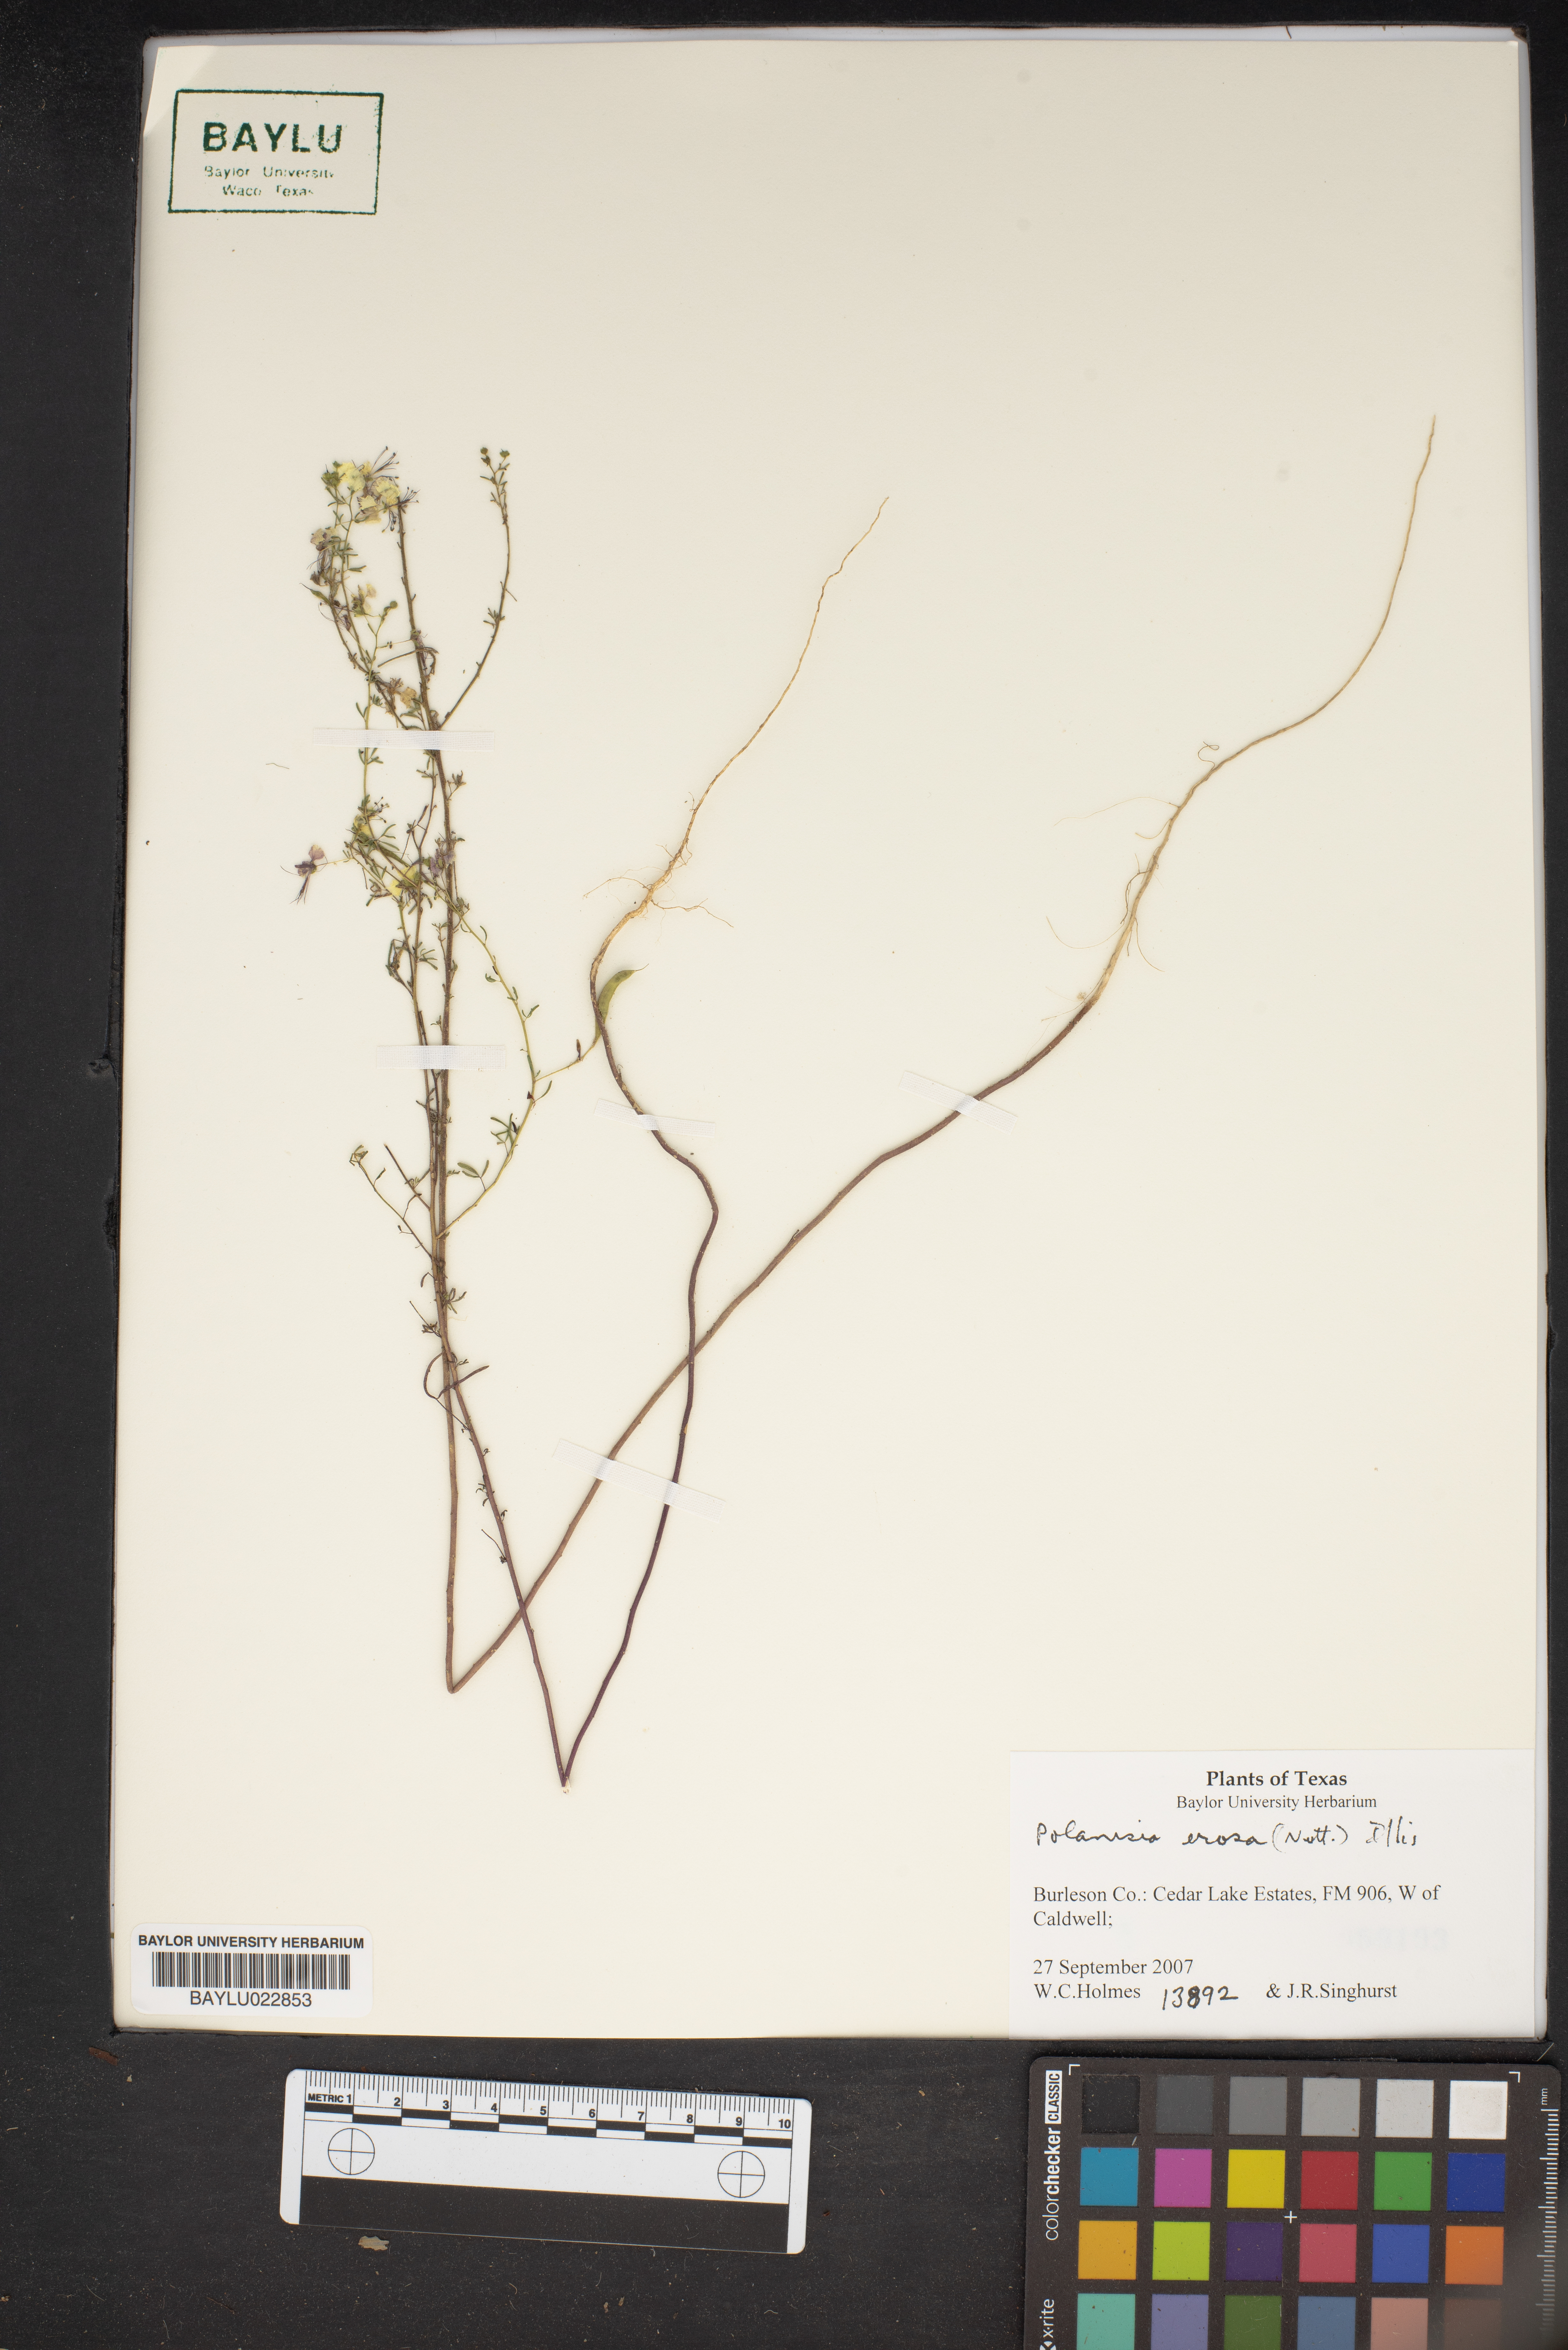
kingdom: Plantae
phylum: Tracheophyta
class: Magnoliopsida
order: Brassicales
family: Cleomaceae
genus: Polanisia
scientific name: Polanisia erosa
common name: Large clammyweed
